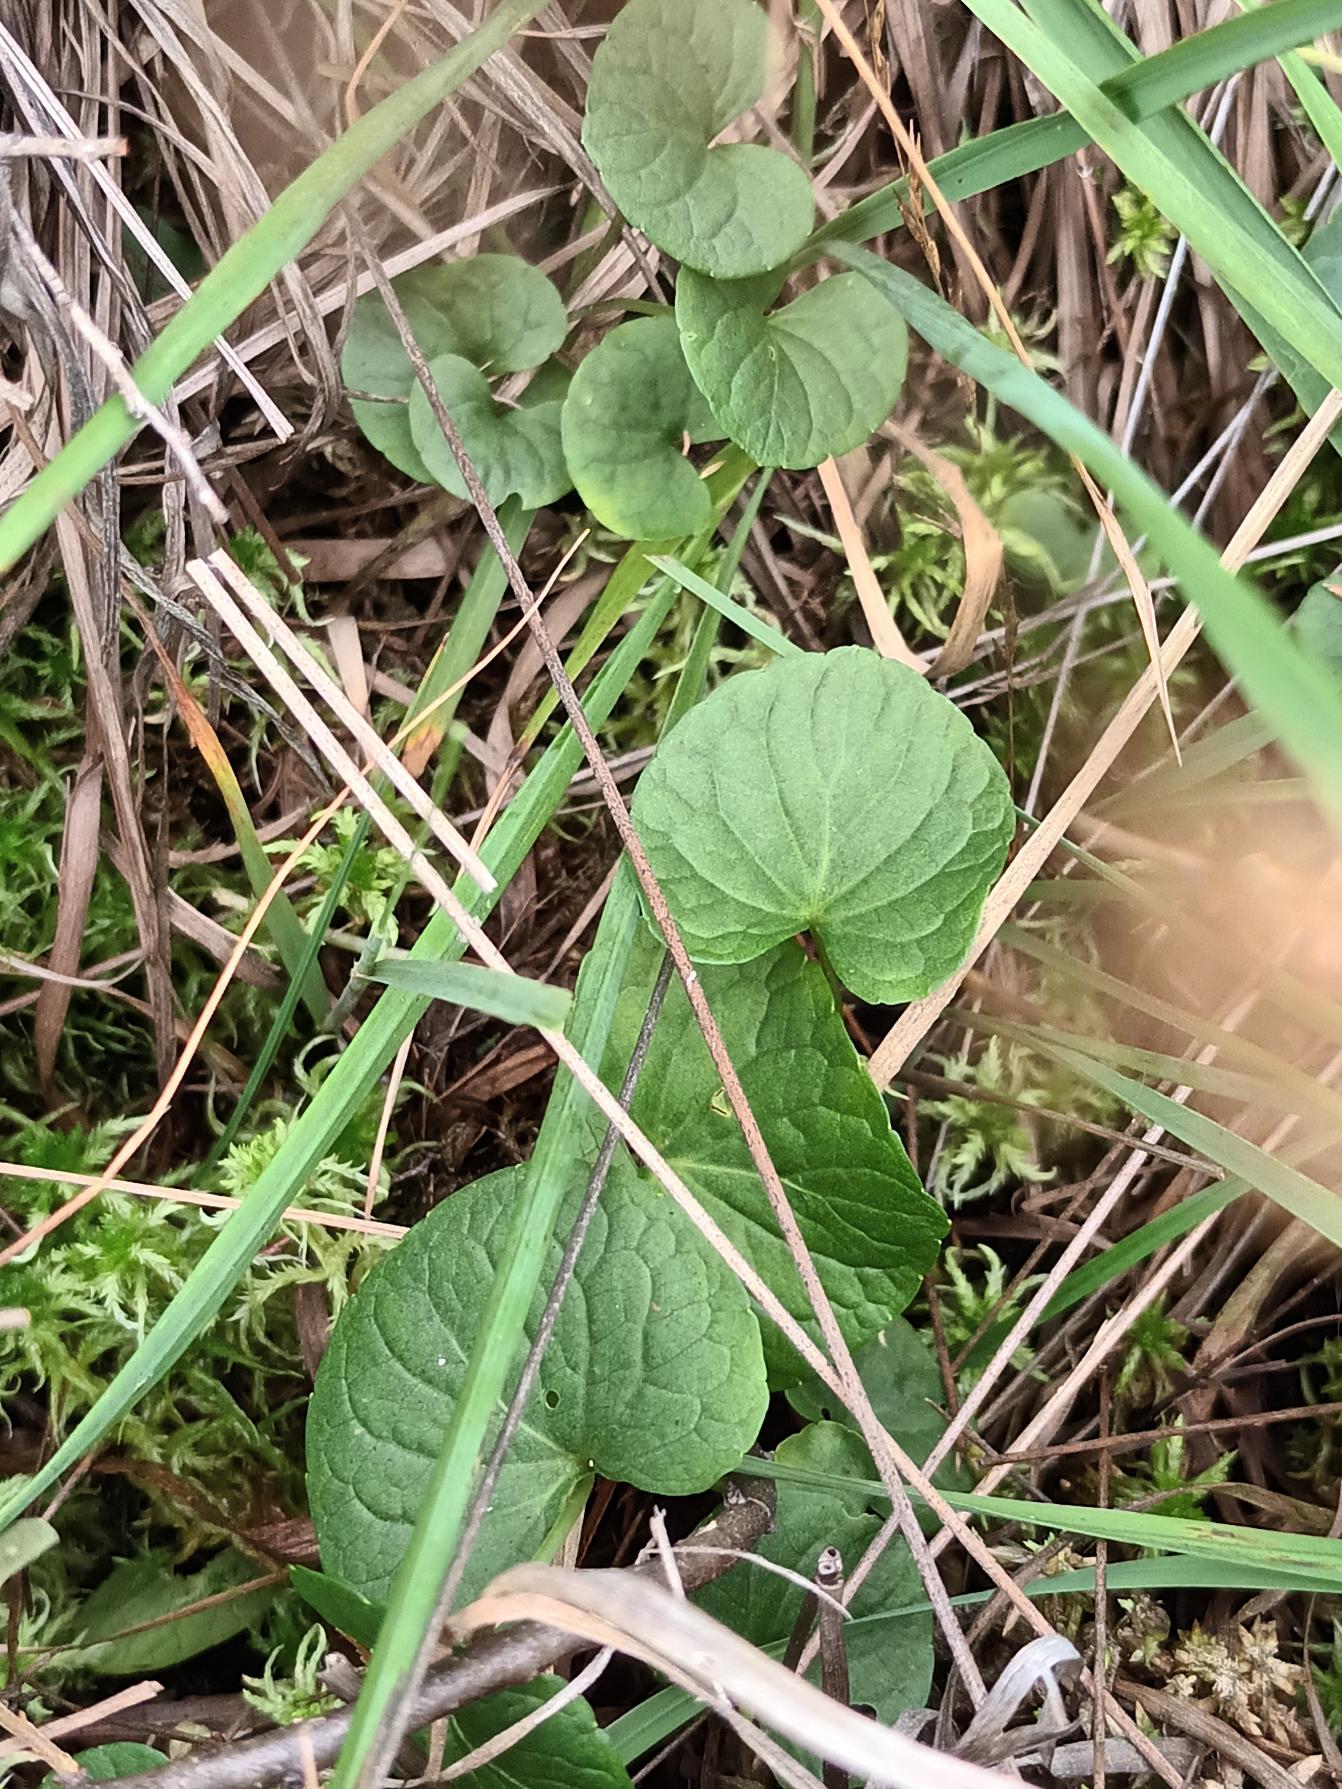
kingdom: Plantae
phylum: Tracheophyta
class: Magnoliopsida
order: Malpighiales
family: Violaceae
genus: Viola
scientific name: Viola palustris
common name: Eng-viol
